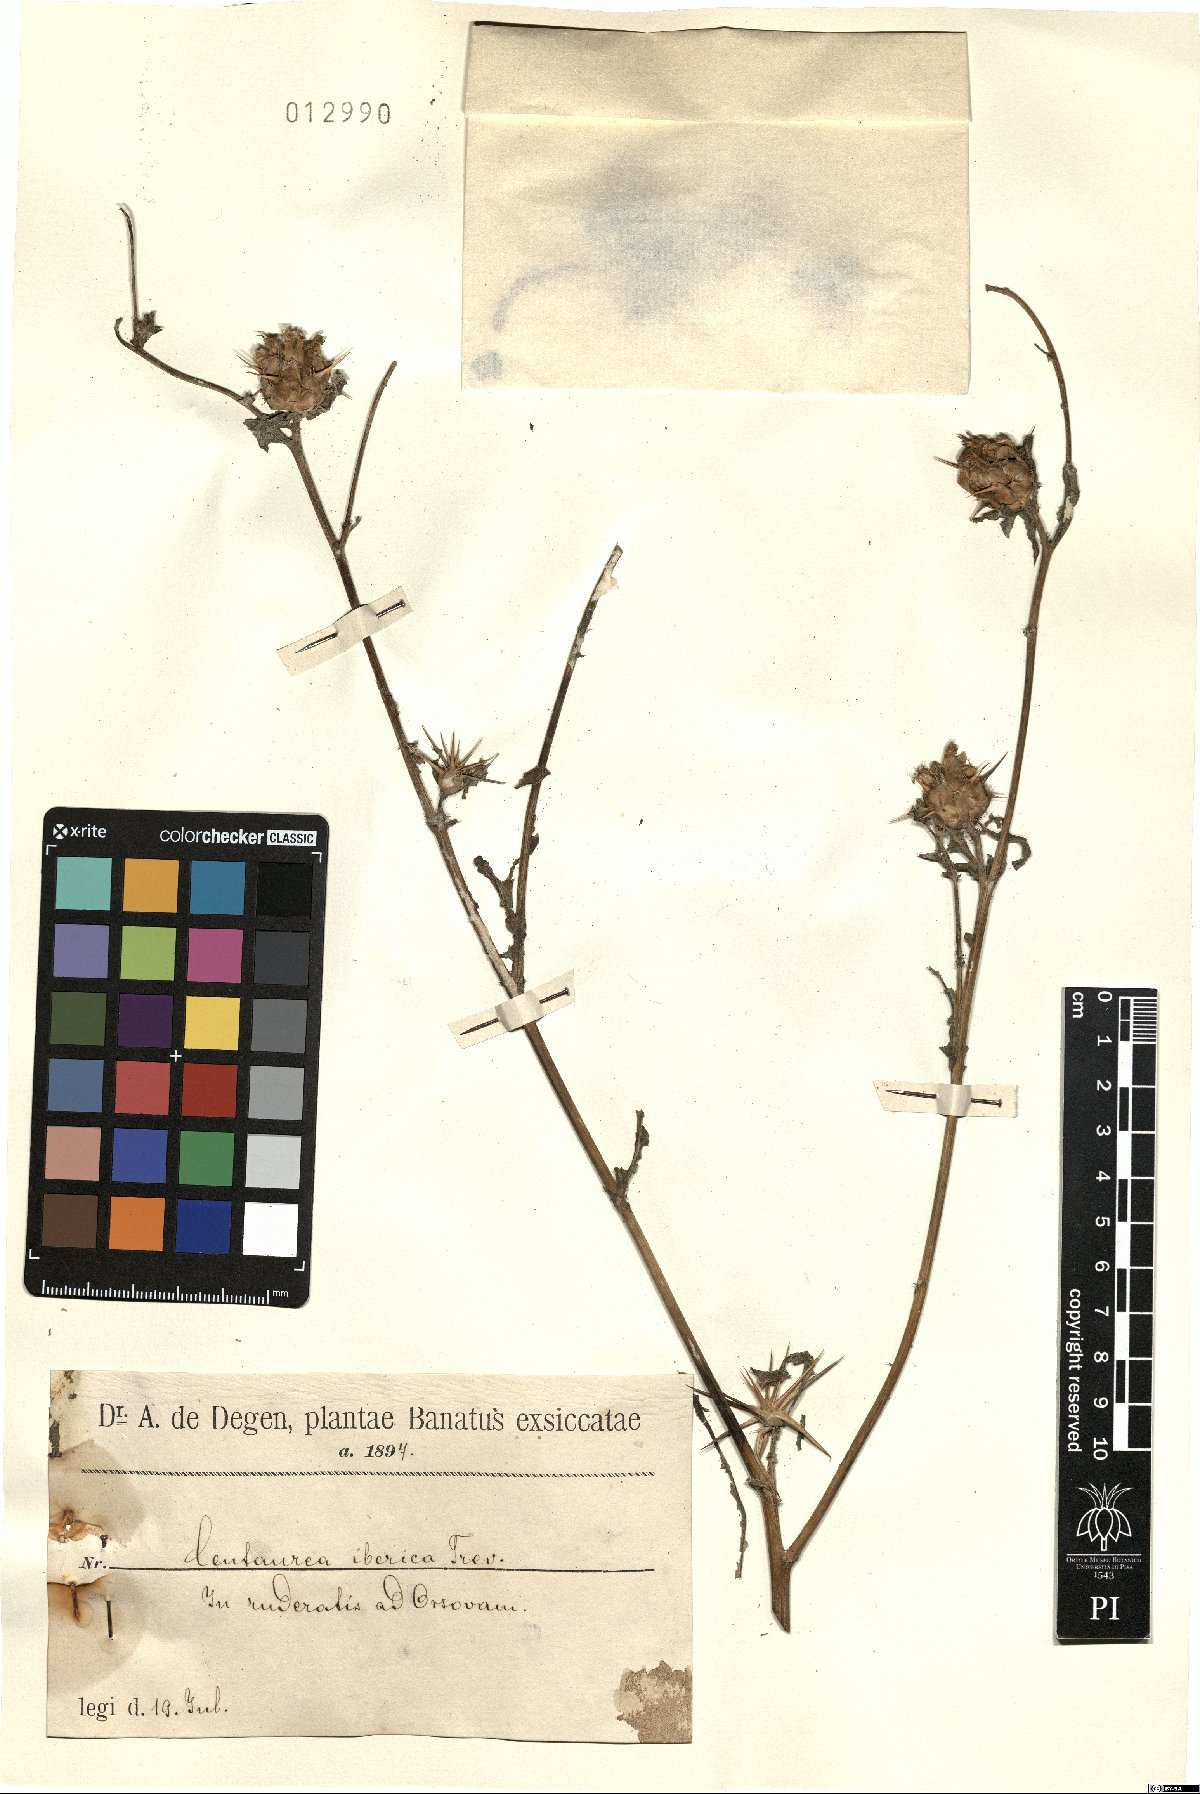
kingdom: Plantae
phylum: Tracheophyta
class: Magnoliopsida
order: Asterales
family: Asteraceae
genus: Centaurea
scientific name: Centaurea iberica
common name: Iberian knapweed
